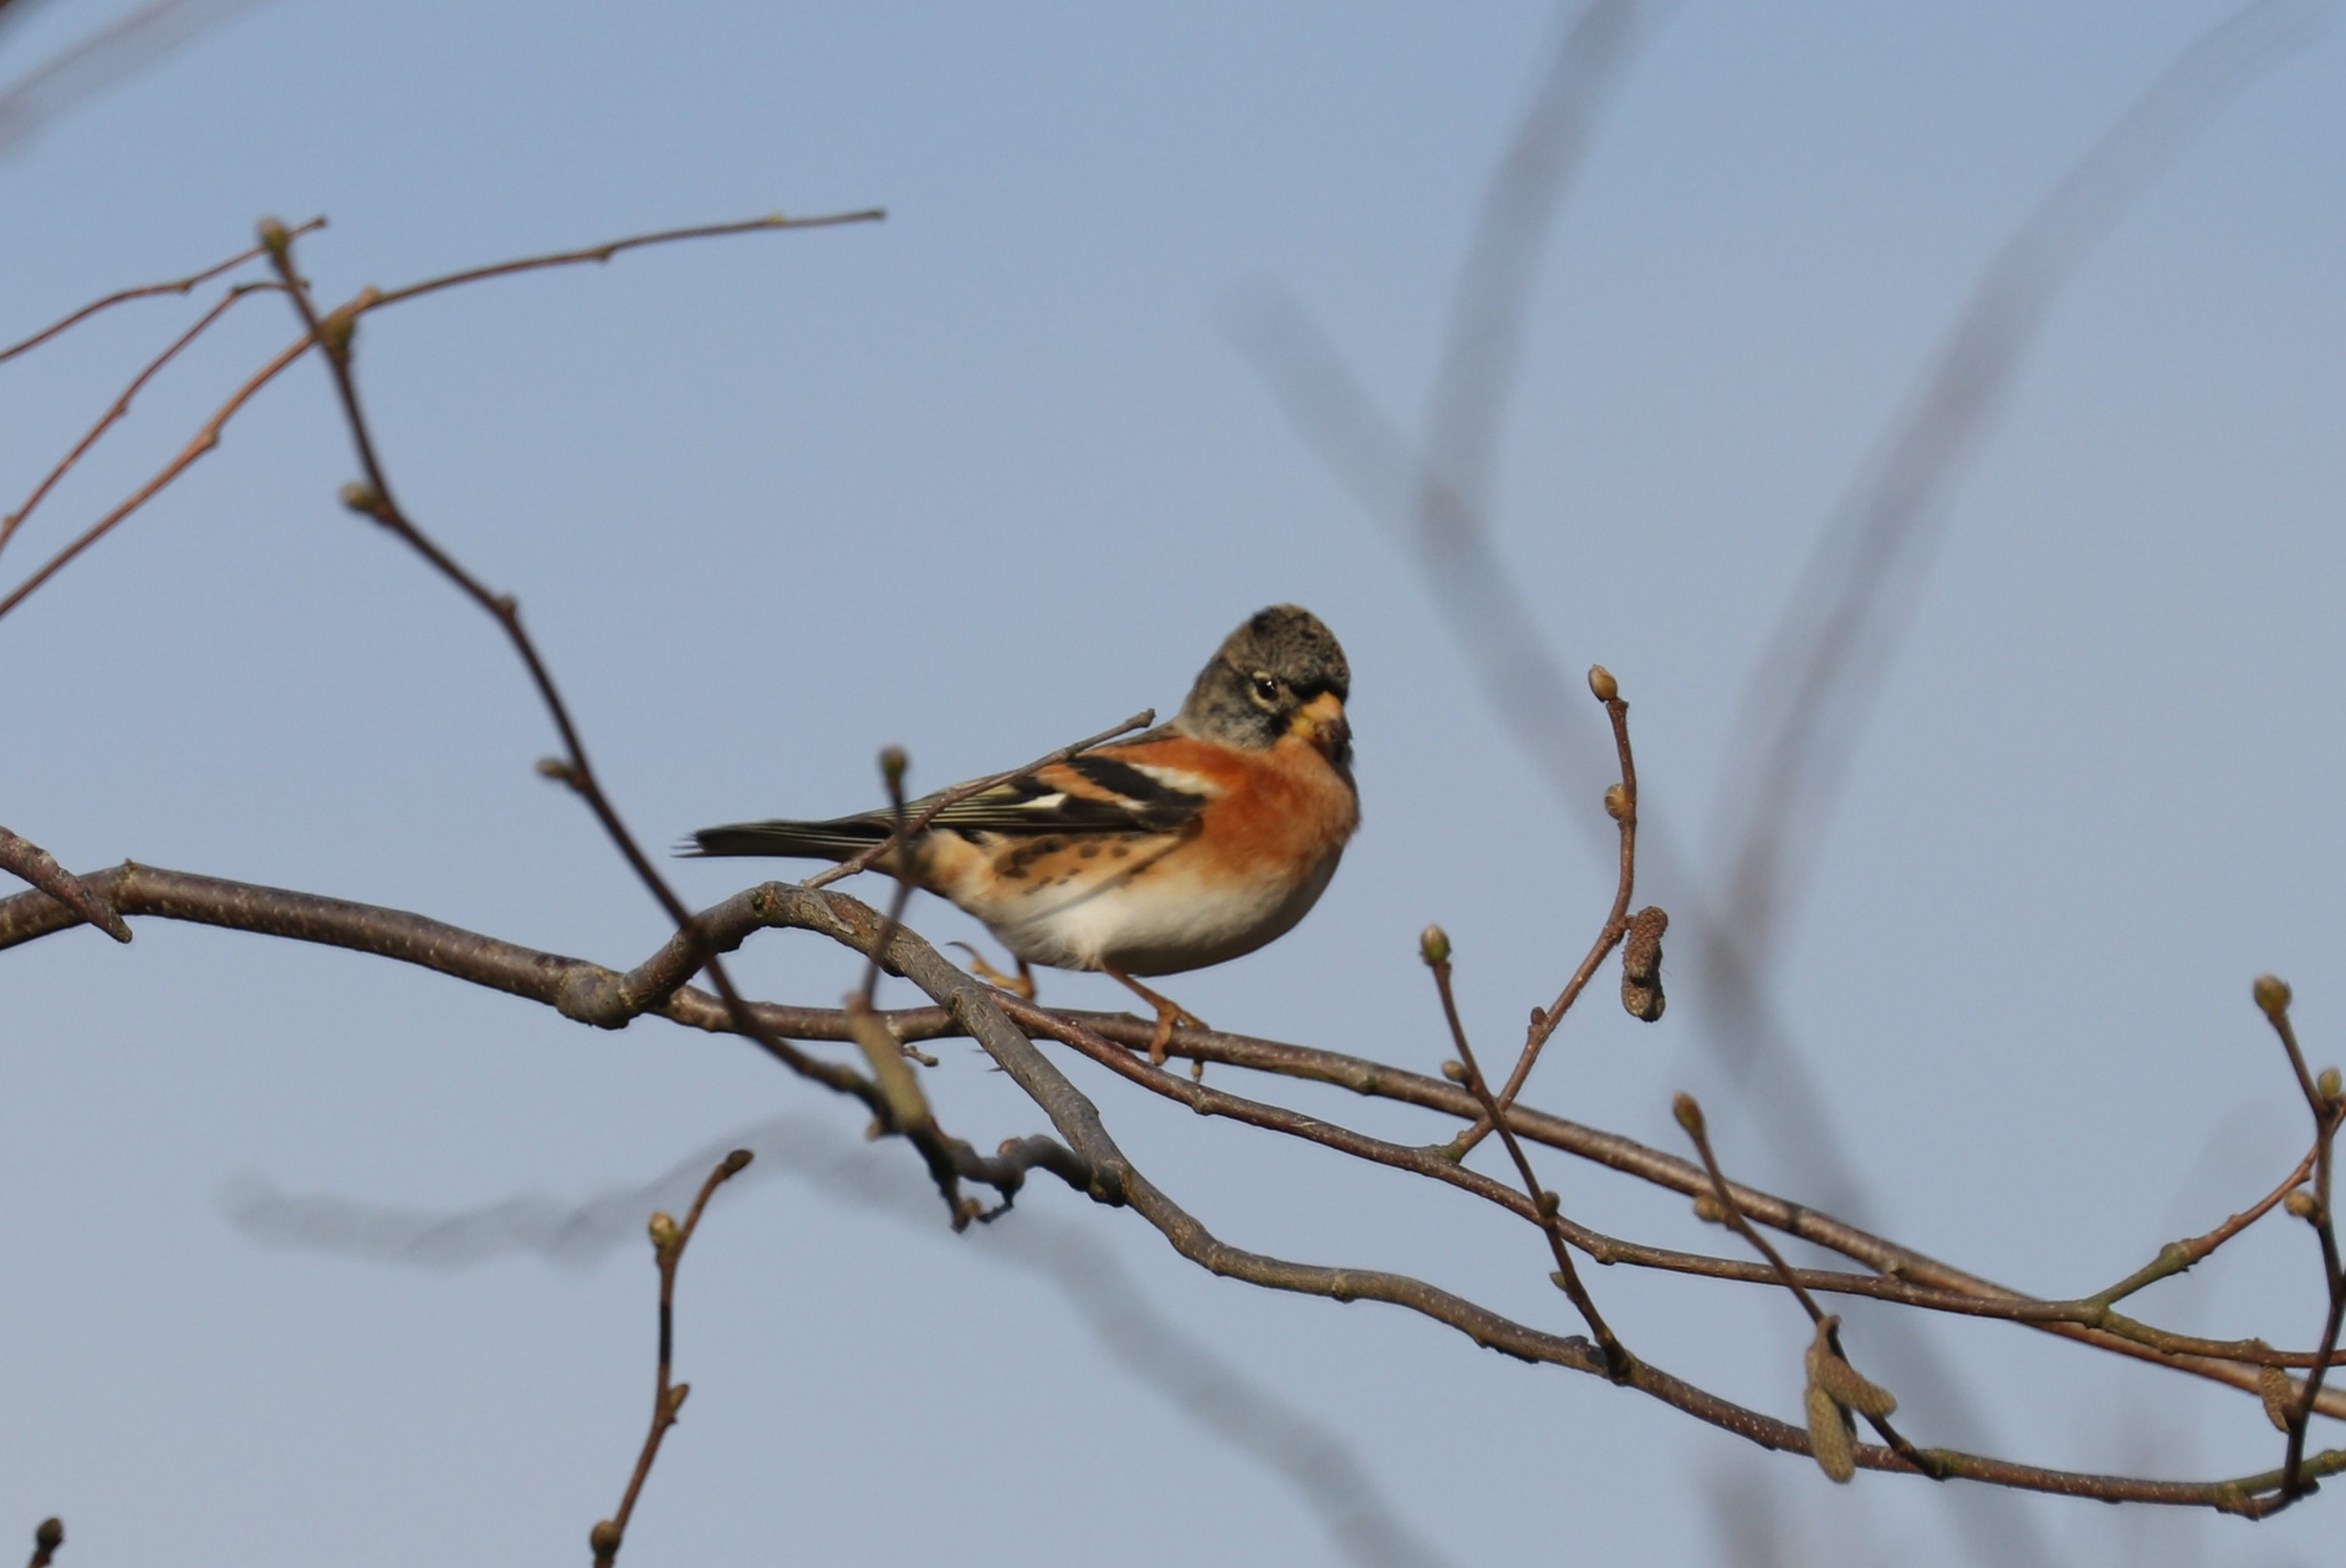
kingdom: Animalia
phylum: Chordata
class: Aves
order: Passeriformes
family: Fringillidae
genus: Fringilla
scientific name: Fringilla montifringilla
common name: Kvækerfinke
